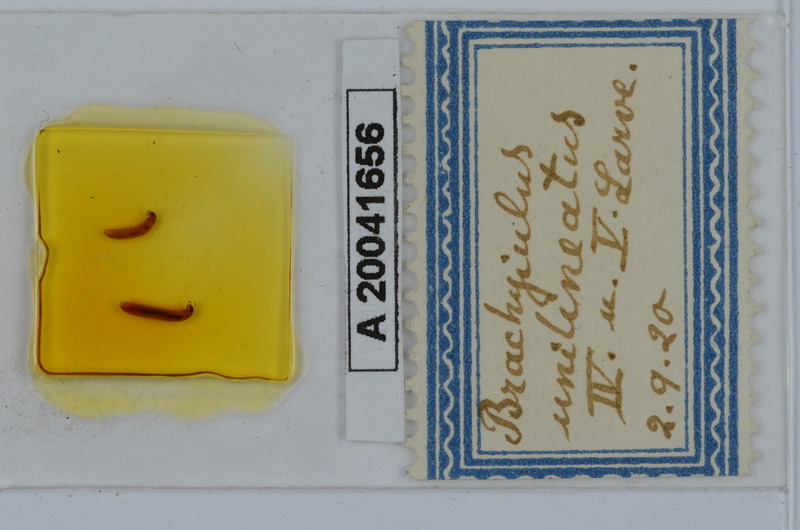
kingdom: Animalia
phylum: Arthropoda
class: Diplopoda
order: Julida
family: Julidae
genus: Brachyiulus
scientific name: Brachyiulus unilineatus
